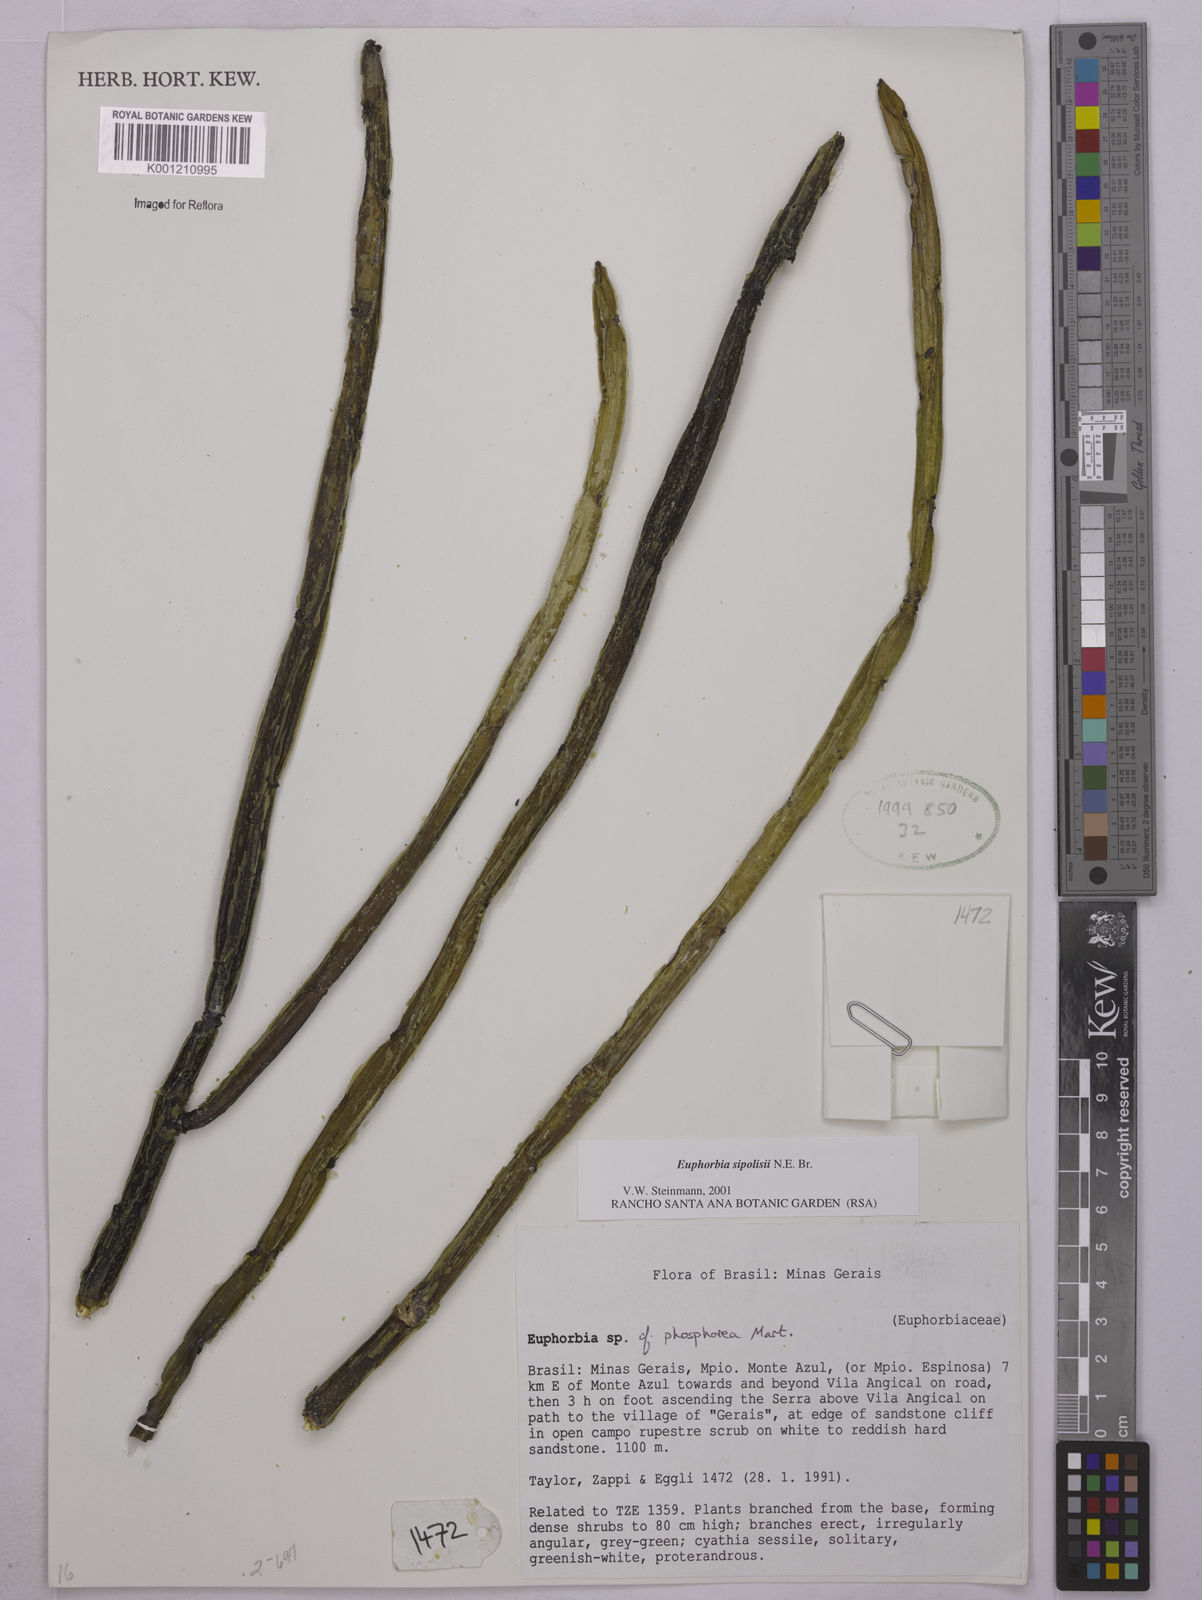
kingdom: Plantae
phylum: Tracheophyta
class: Magnoliopsida
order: Malpighiales
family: Euphorbiaceae
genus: Euphorbia
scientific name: Euphorbia sipolisii
